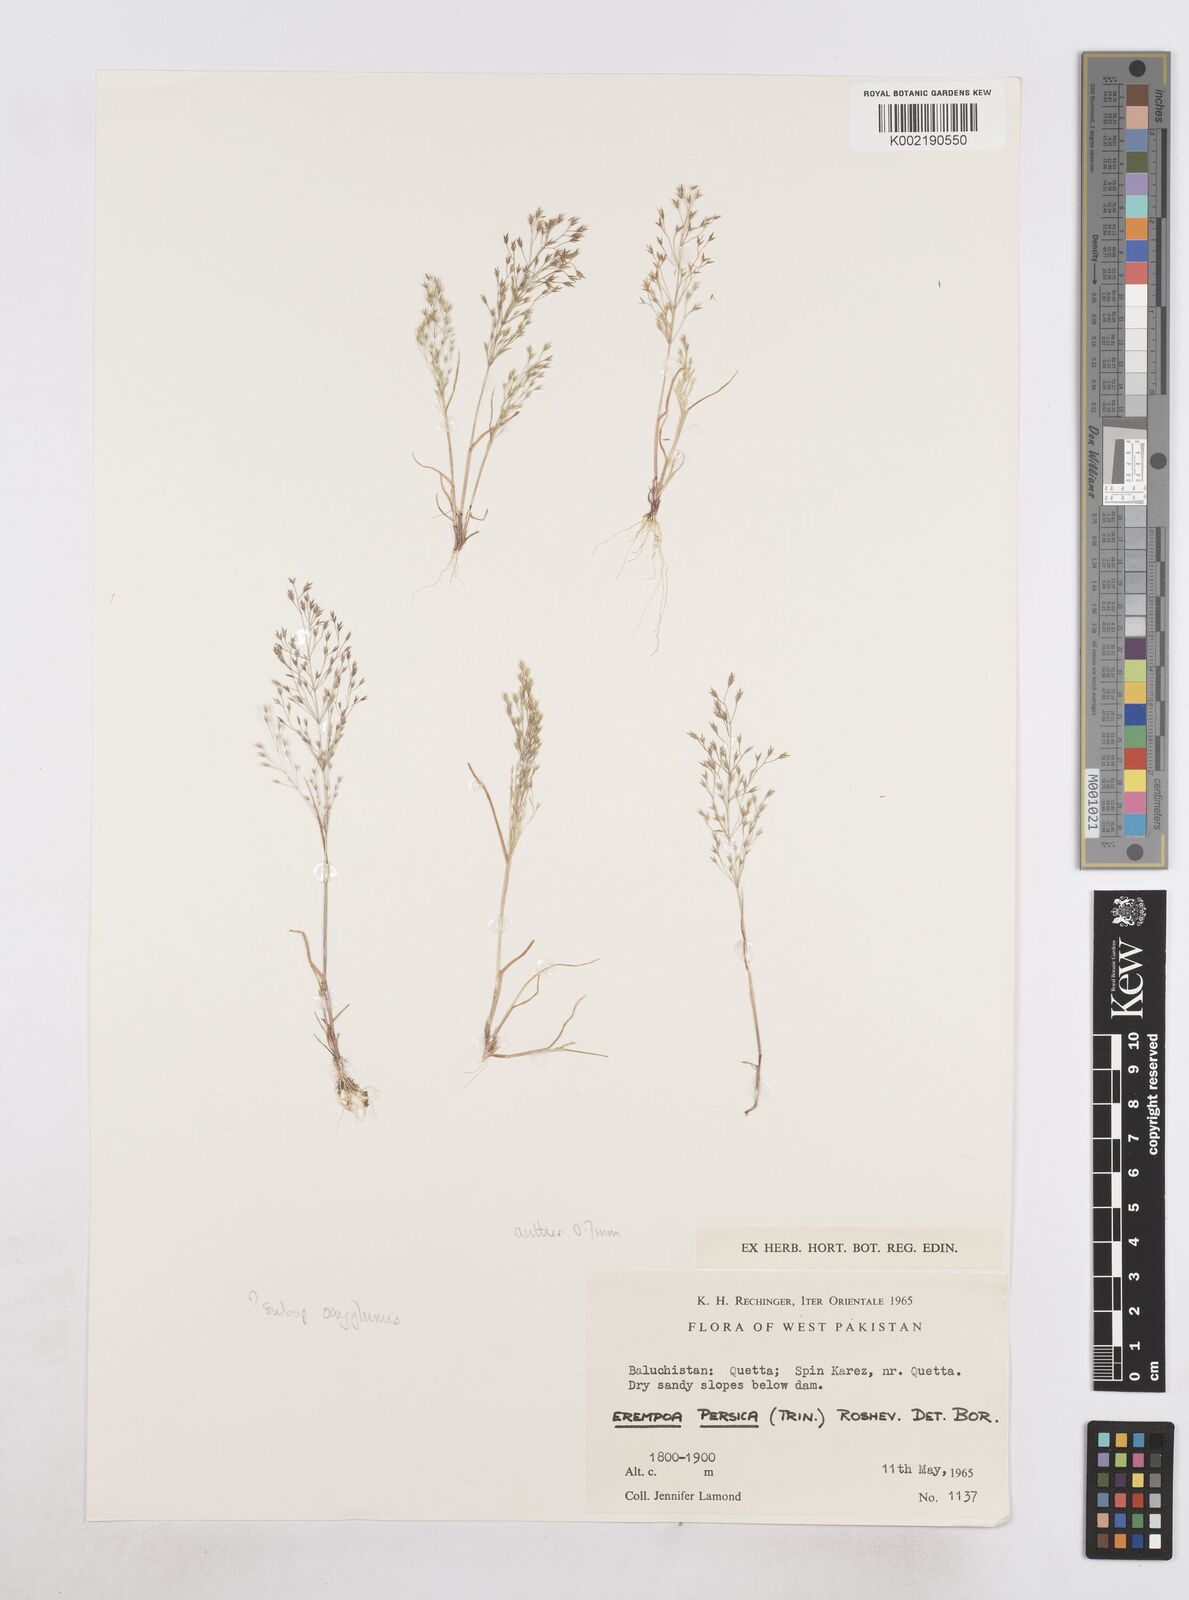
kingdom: Plantae
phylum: Tracheophyta
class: Liliopsida
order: Poales
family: Poaceae
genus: Poa
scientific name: Poa diaphora
